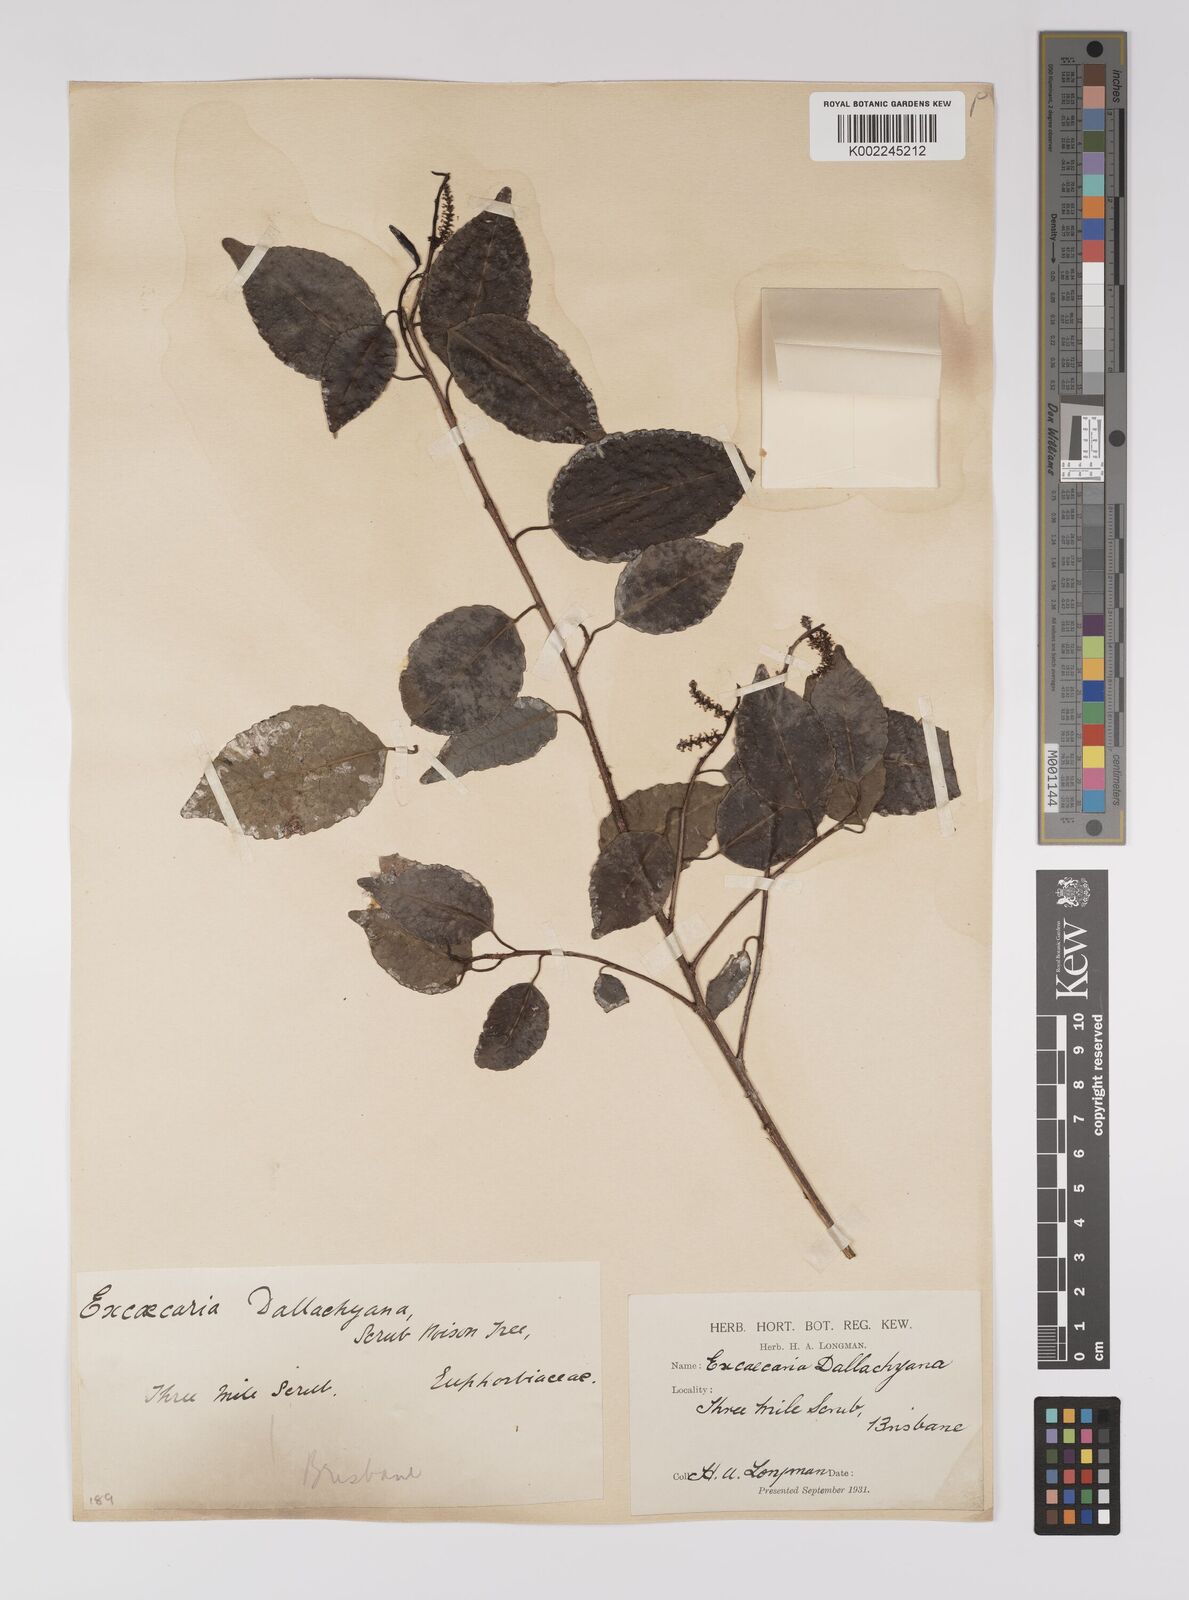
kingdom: Plantae
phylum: Tracheophyta
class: Magnoliopsida
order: Malpighiales
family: Euphorbiaceae
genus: Excoecaria
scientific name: Excoecaria dallachyana
